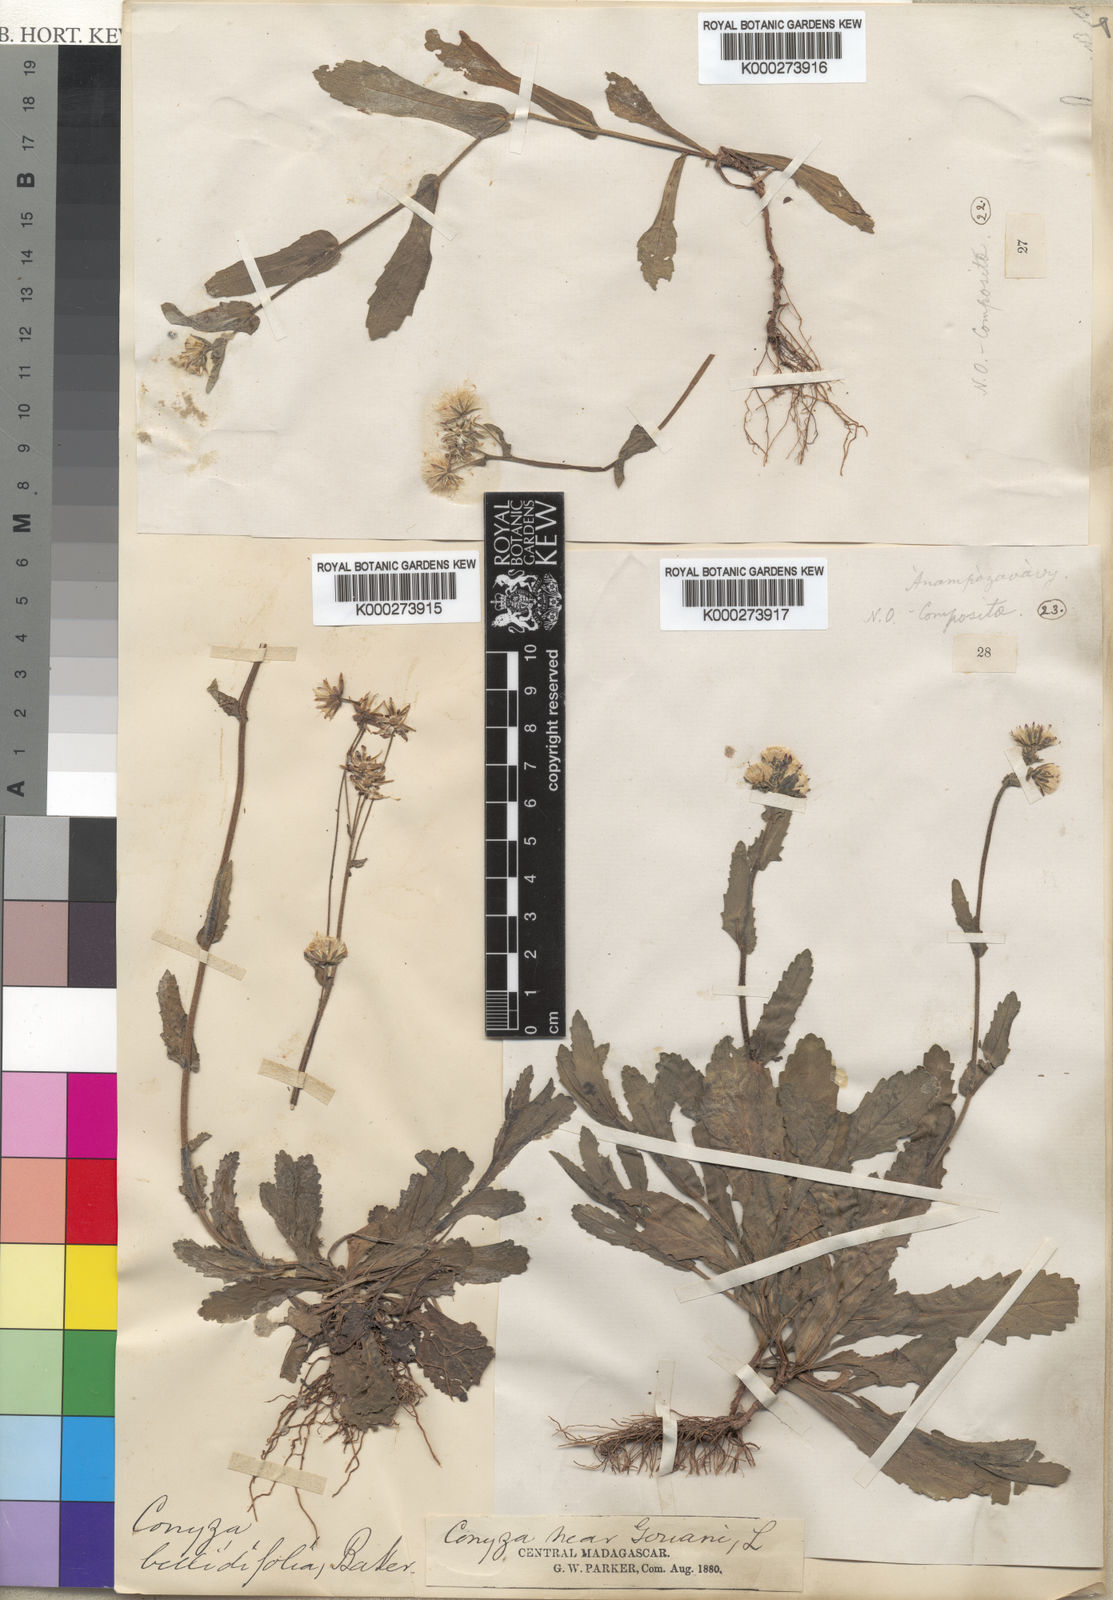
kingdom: Plantae
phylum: Tracheophyta
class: Magnoliopsida
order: Asterales
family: Asteraceae
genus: Conyza
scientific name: Conyza
